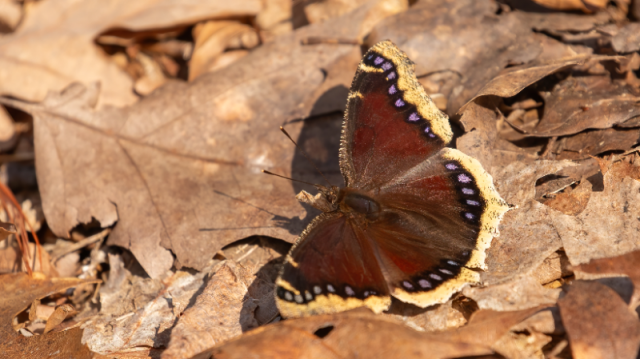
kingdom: Animalia
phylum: Arthropoda
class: Insecta
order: Lepidoptera
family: Nymphalidae
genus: Nymphalis
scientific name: Nymphalis antiopa
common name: Mourning Cloak
